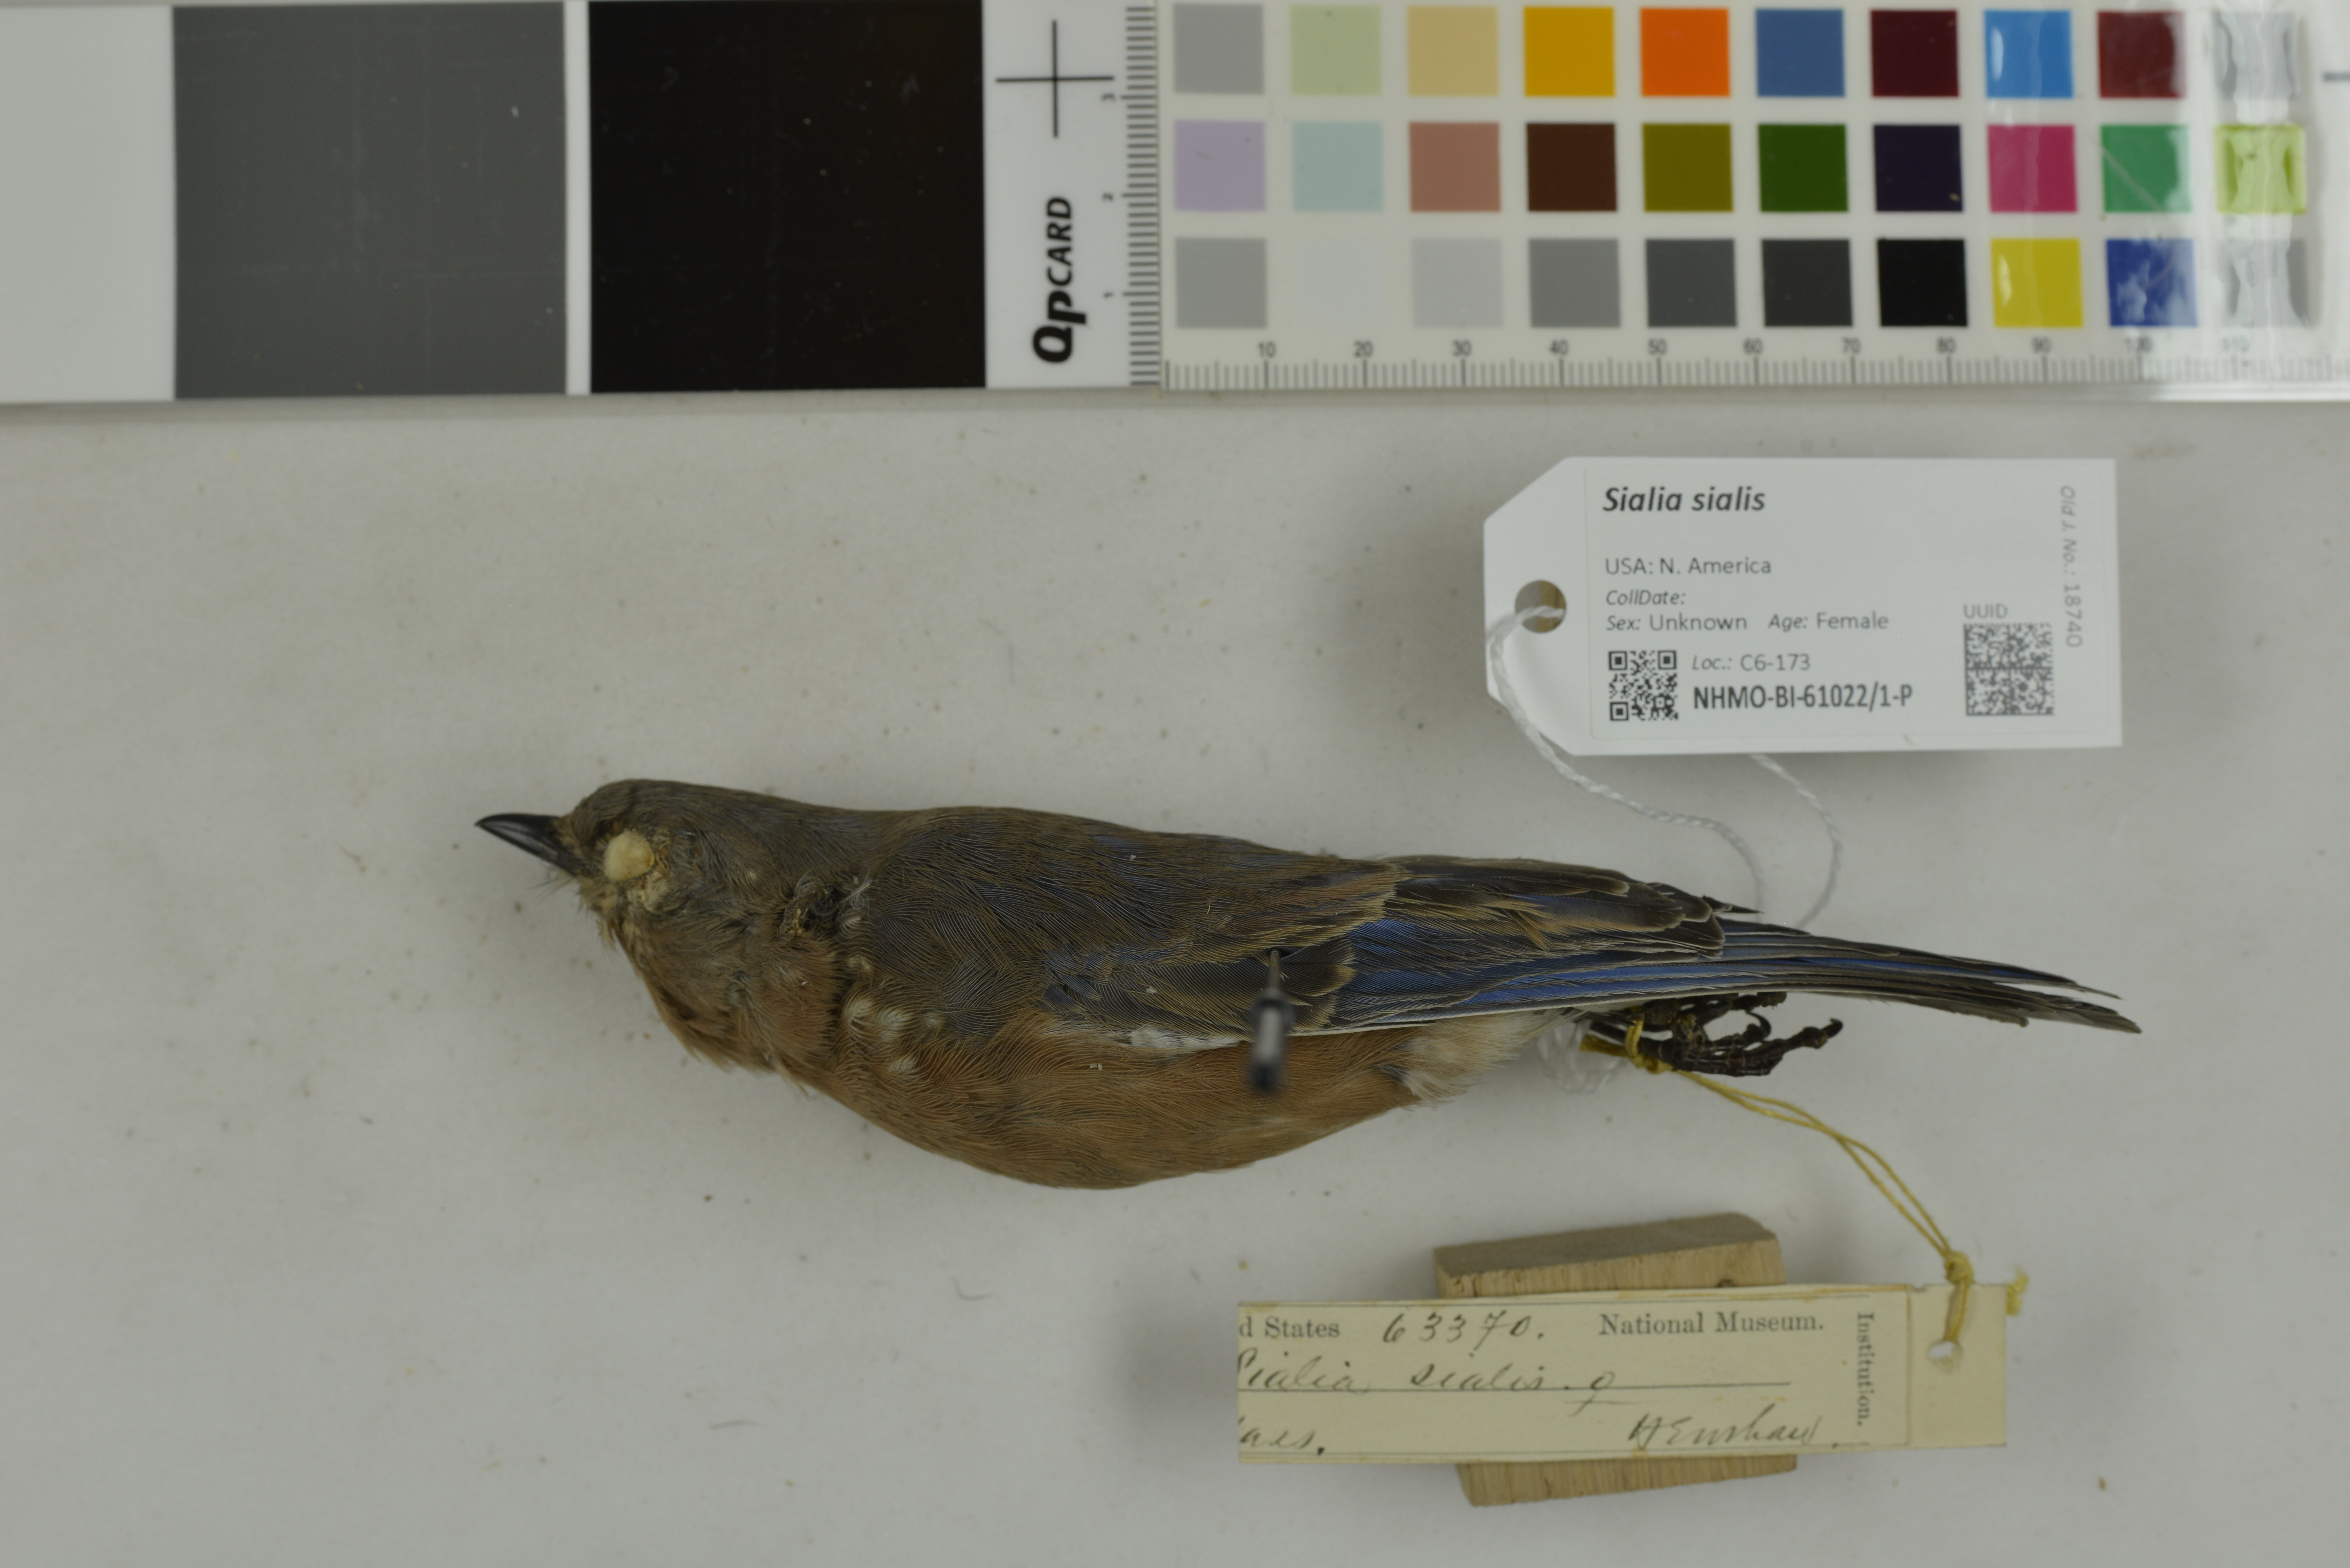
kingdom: Animalia
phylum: Chordata
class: Aves
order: Passeriformes
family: Turdidae
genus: Sialia
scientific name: Sialia sialis
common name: Eastern bluebird
